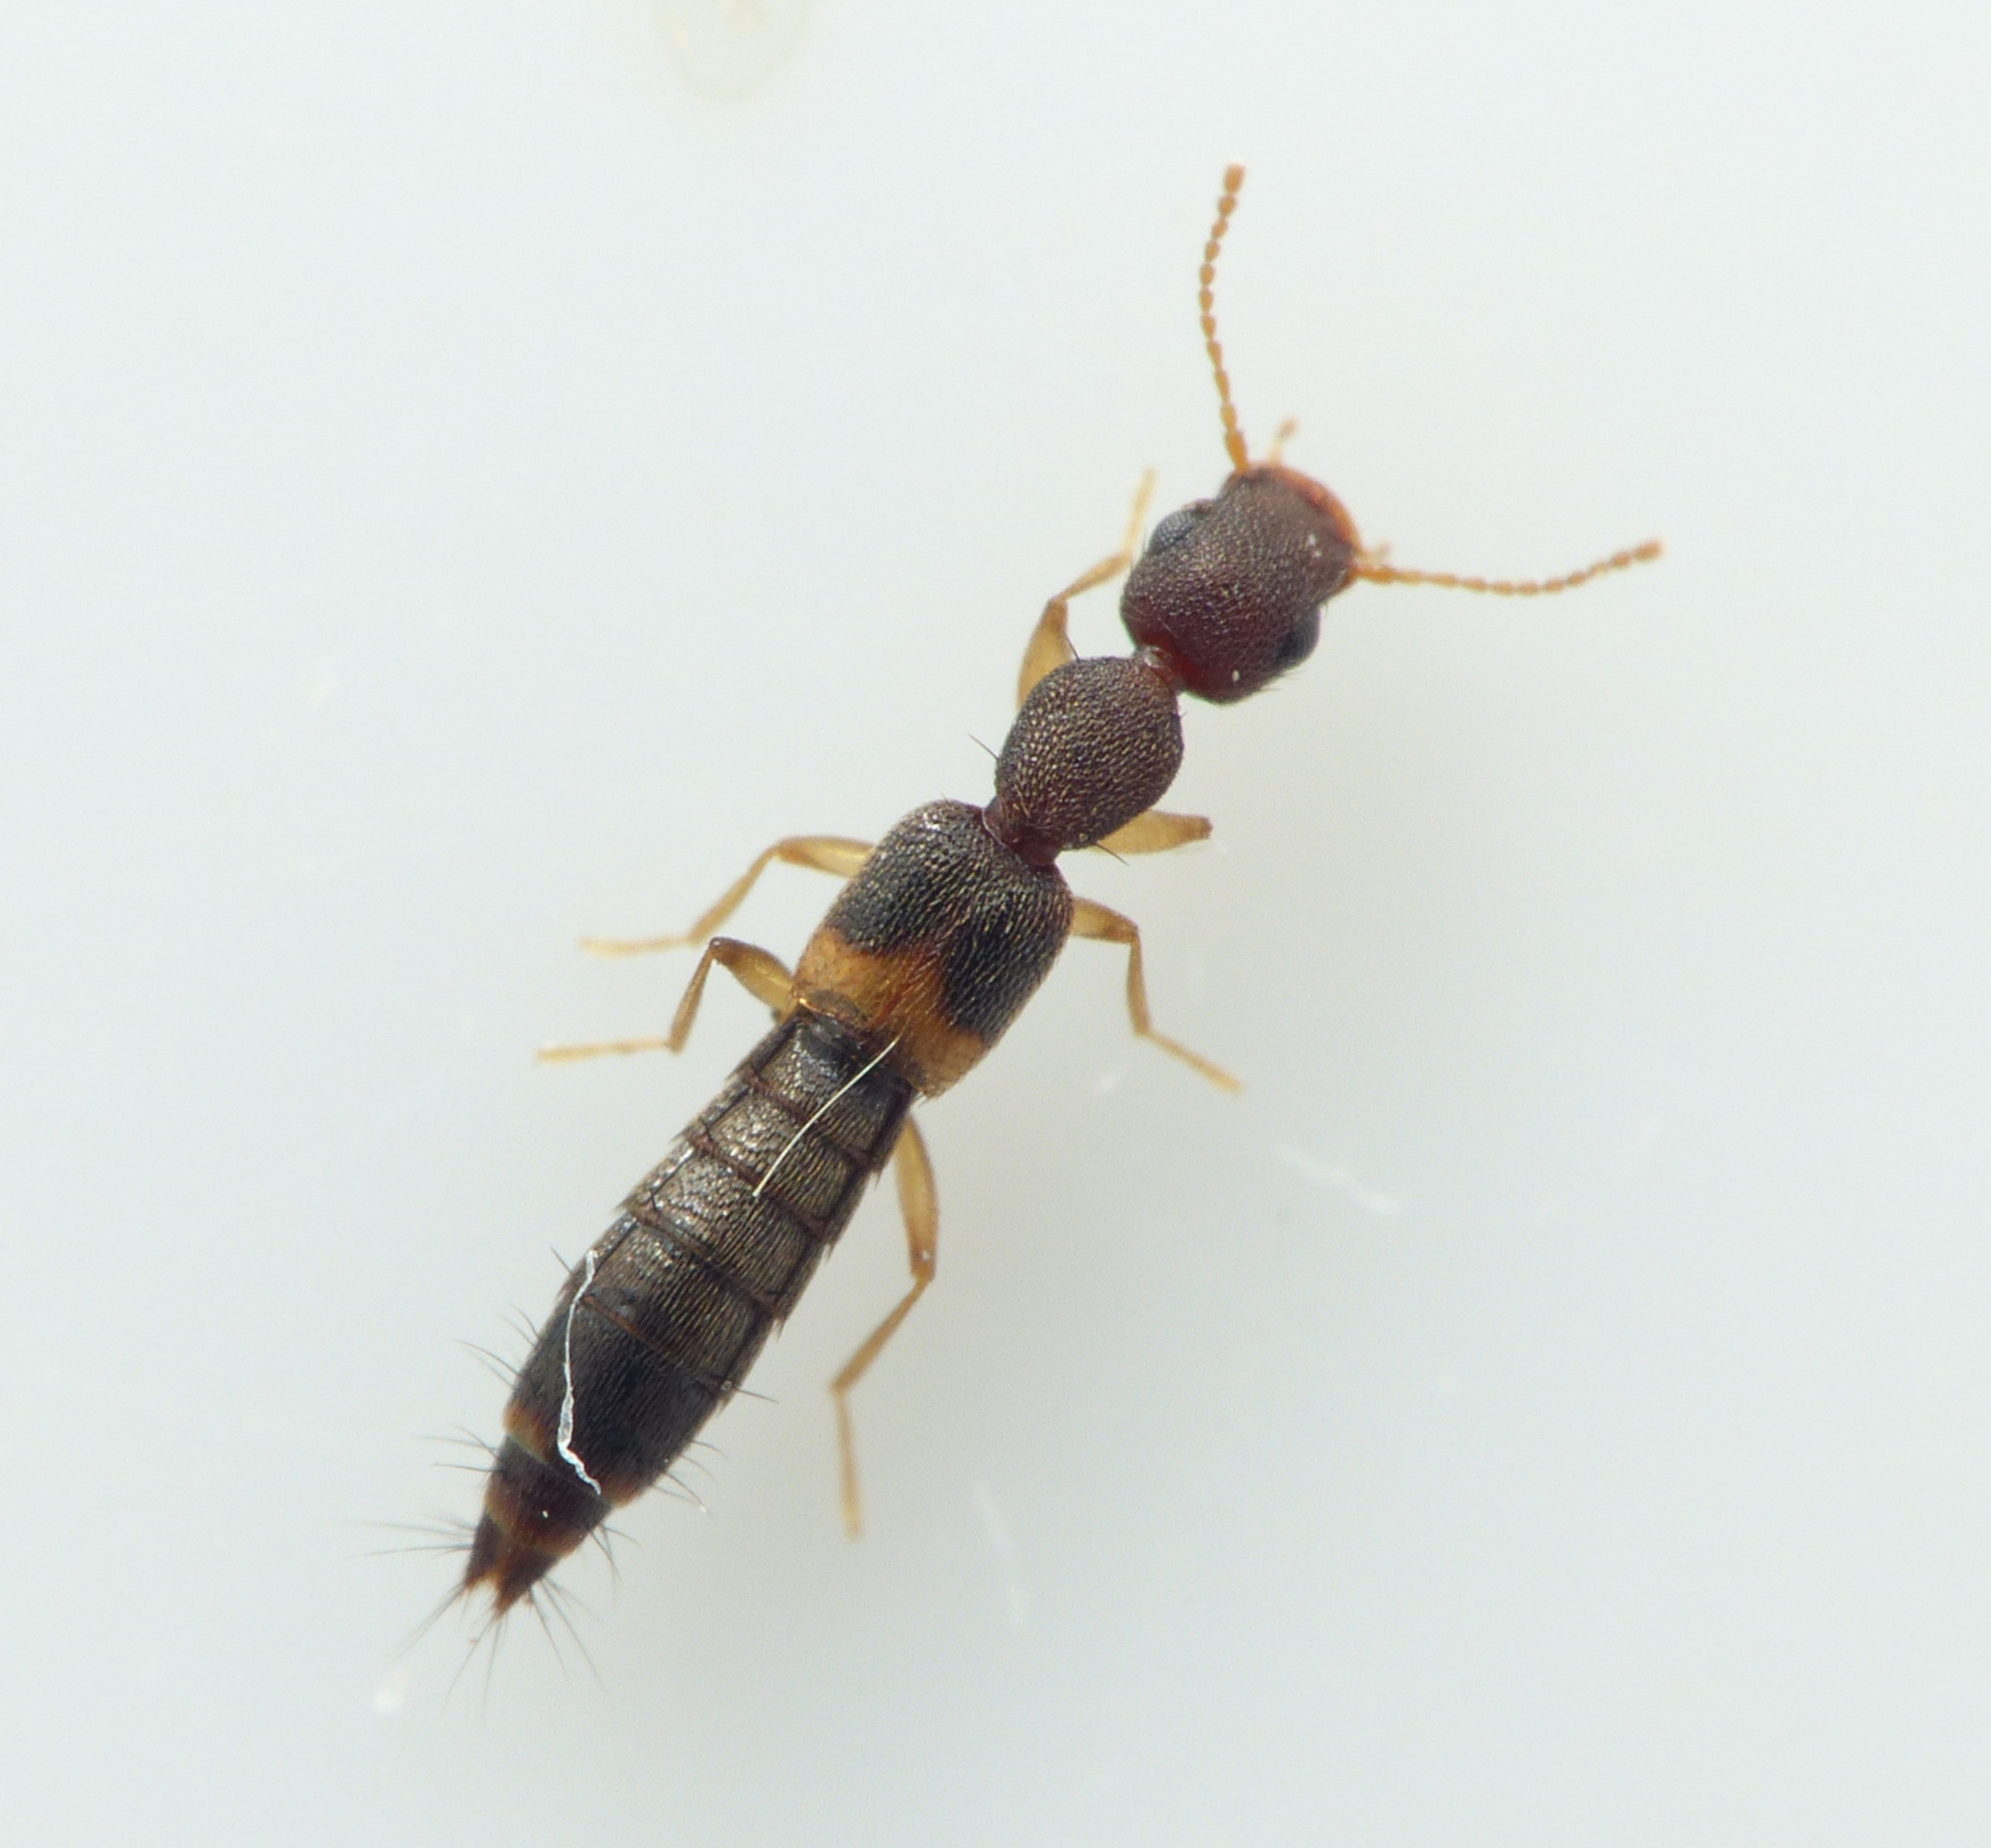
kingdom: Animalia
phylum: Arthropoda
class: Insecta
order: Coleoptera
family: Staphylinidae
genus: Astenus
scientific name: Astenus pulchellus
